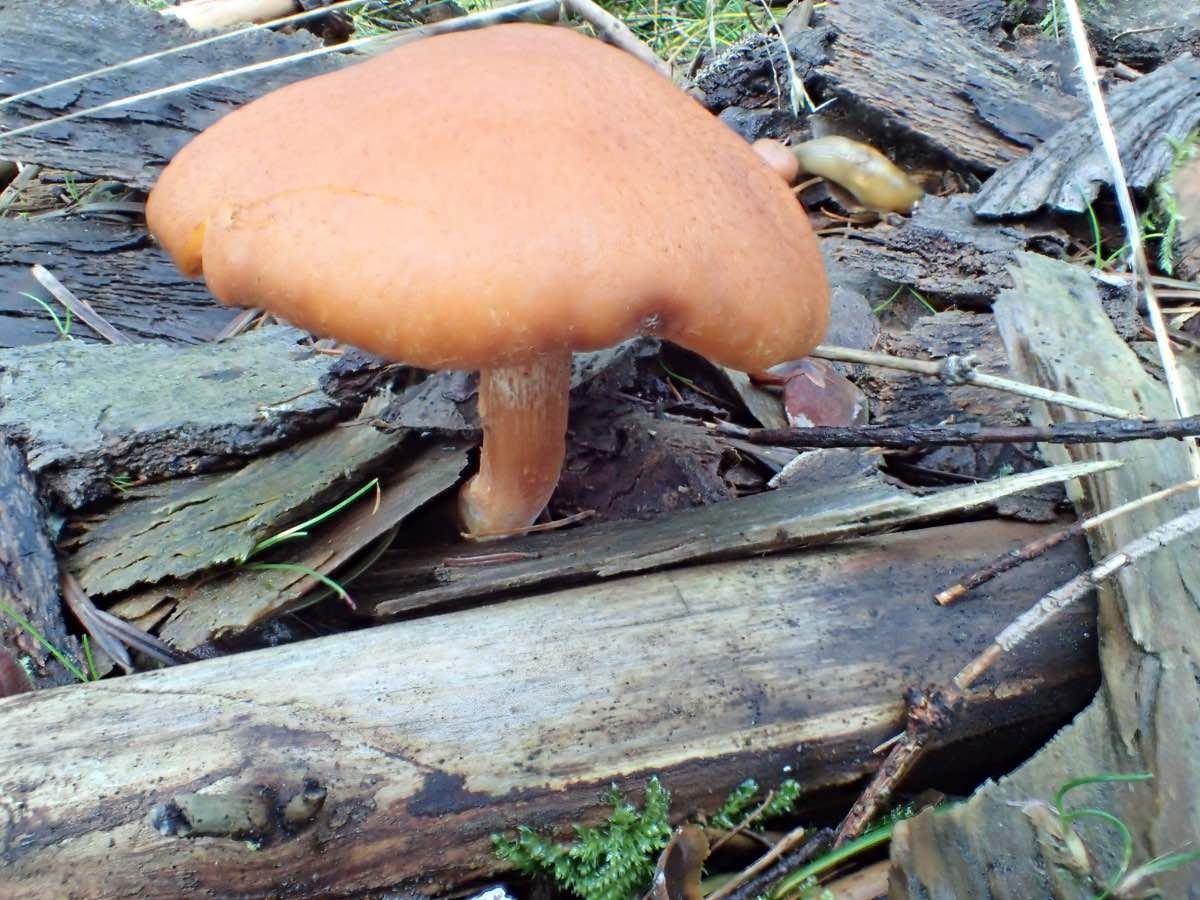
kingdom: Fungi
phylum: Basidiomycota
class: Agaricomycetes
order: Agaricales
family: Hymenogastraceae
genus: Gymnopilus
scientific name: Gymnopilus penetrans
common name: plettet flammehat
